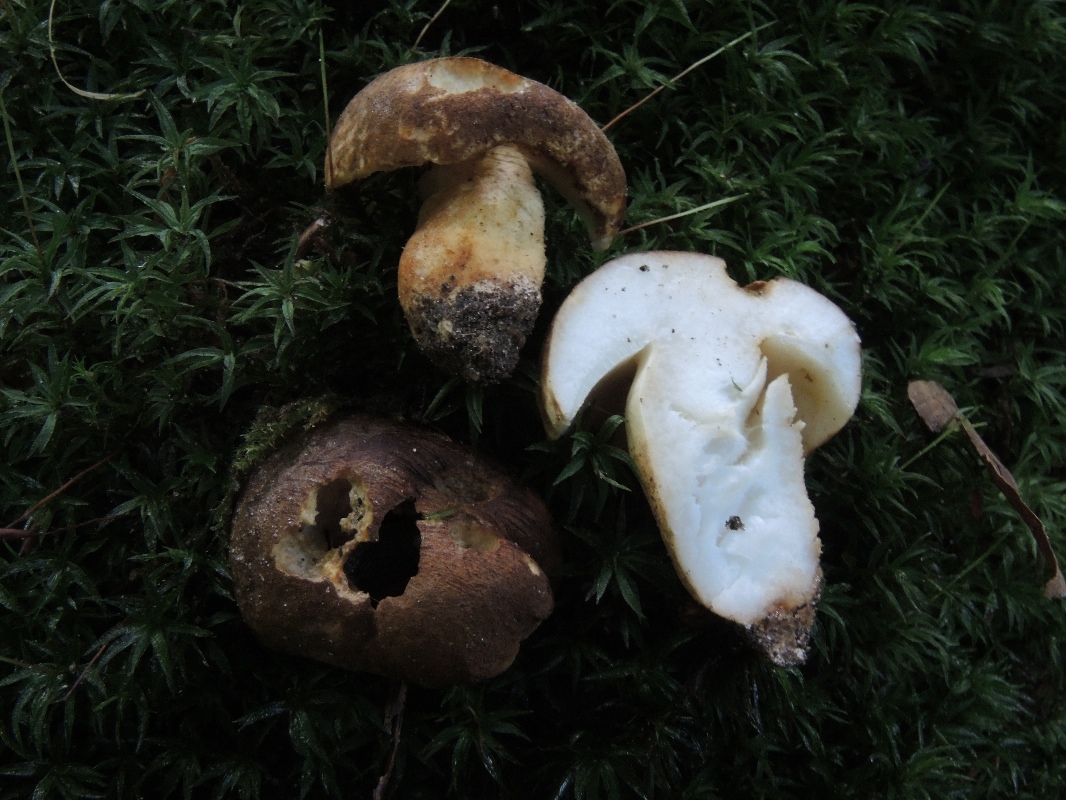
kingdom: Fungi
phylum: Basidiomycota
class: Agaricomycetes
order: Boletales
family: Gyroporaceae
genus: Gyroporus
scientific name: Gyroporus castaneus
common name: kastanie-kammerrørhat
